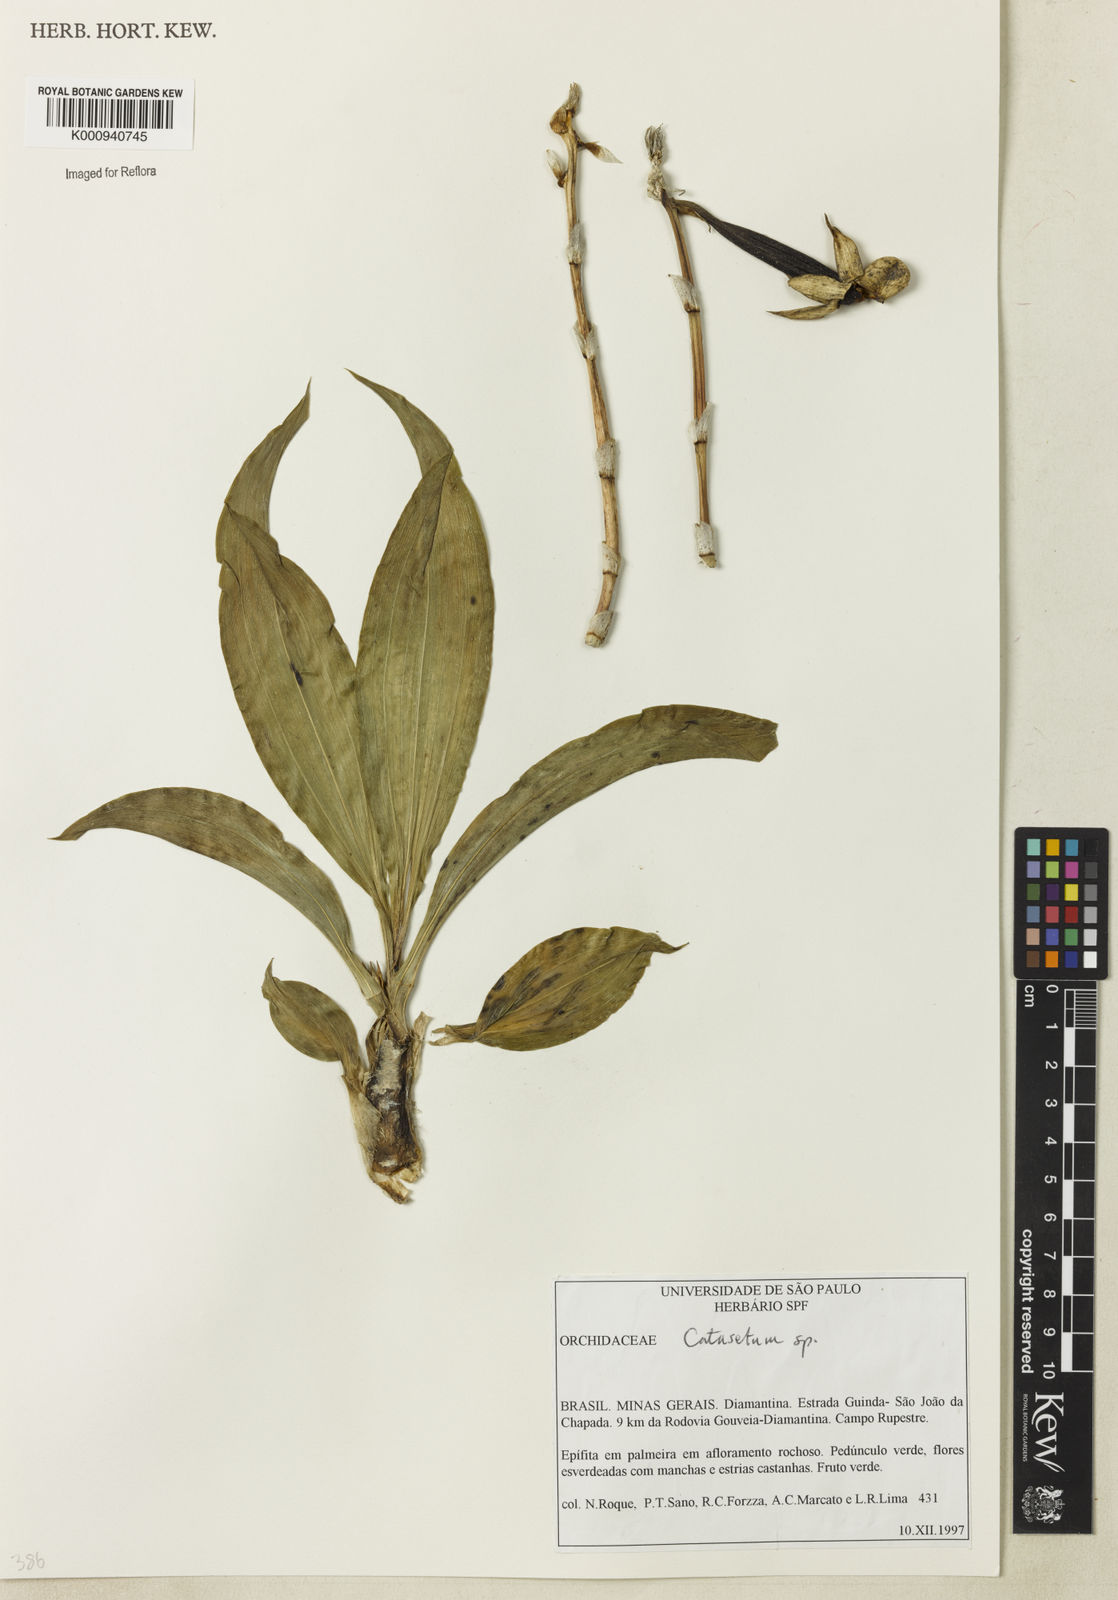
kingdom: Plantae
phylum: Tracheophyta
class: Liliopsida
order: Asparagales
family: Orchidaceae
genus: Catasetum
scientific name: Catasetum
